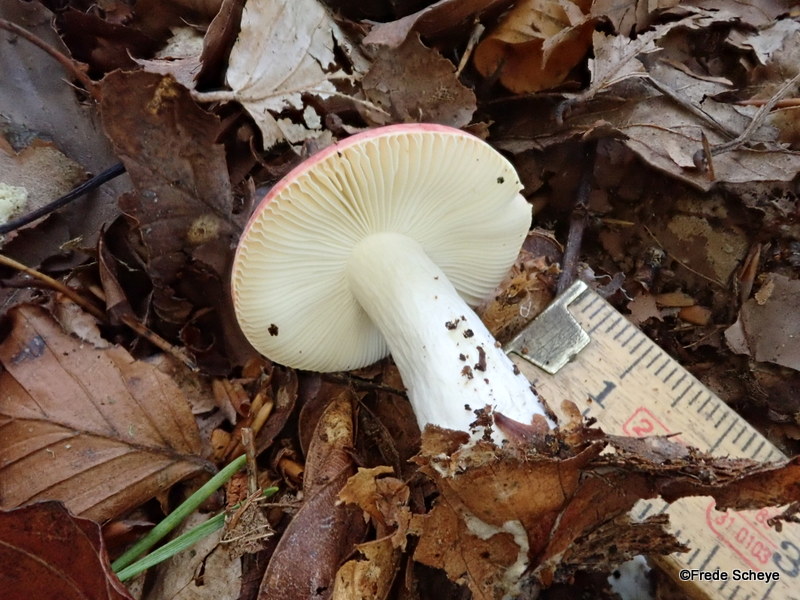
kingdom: Fungi
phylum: Basidiomycota
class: Agaricomycetes
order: Russulales
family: Russulaceae
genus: Russula
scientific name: Russula nobilis
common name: lille gift-skørhat
